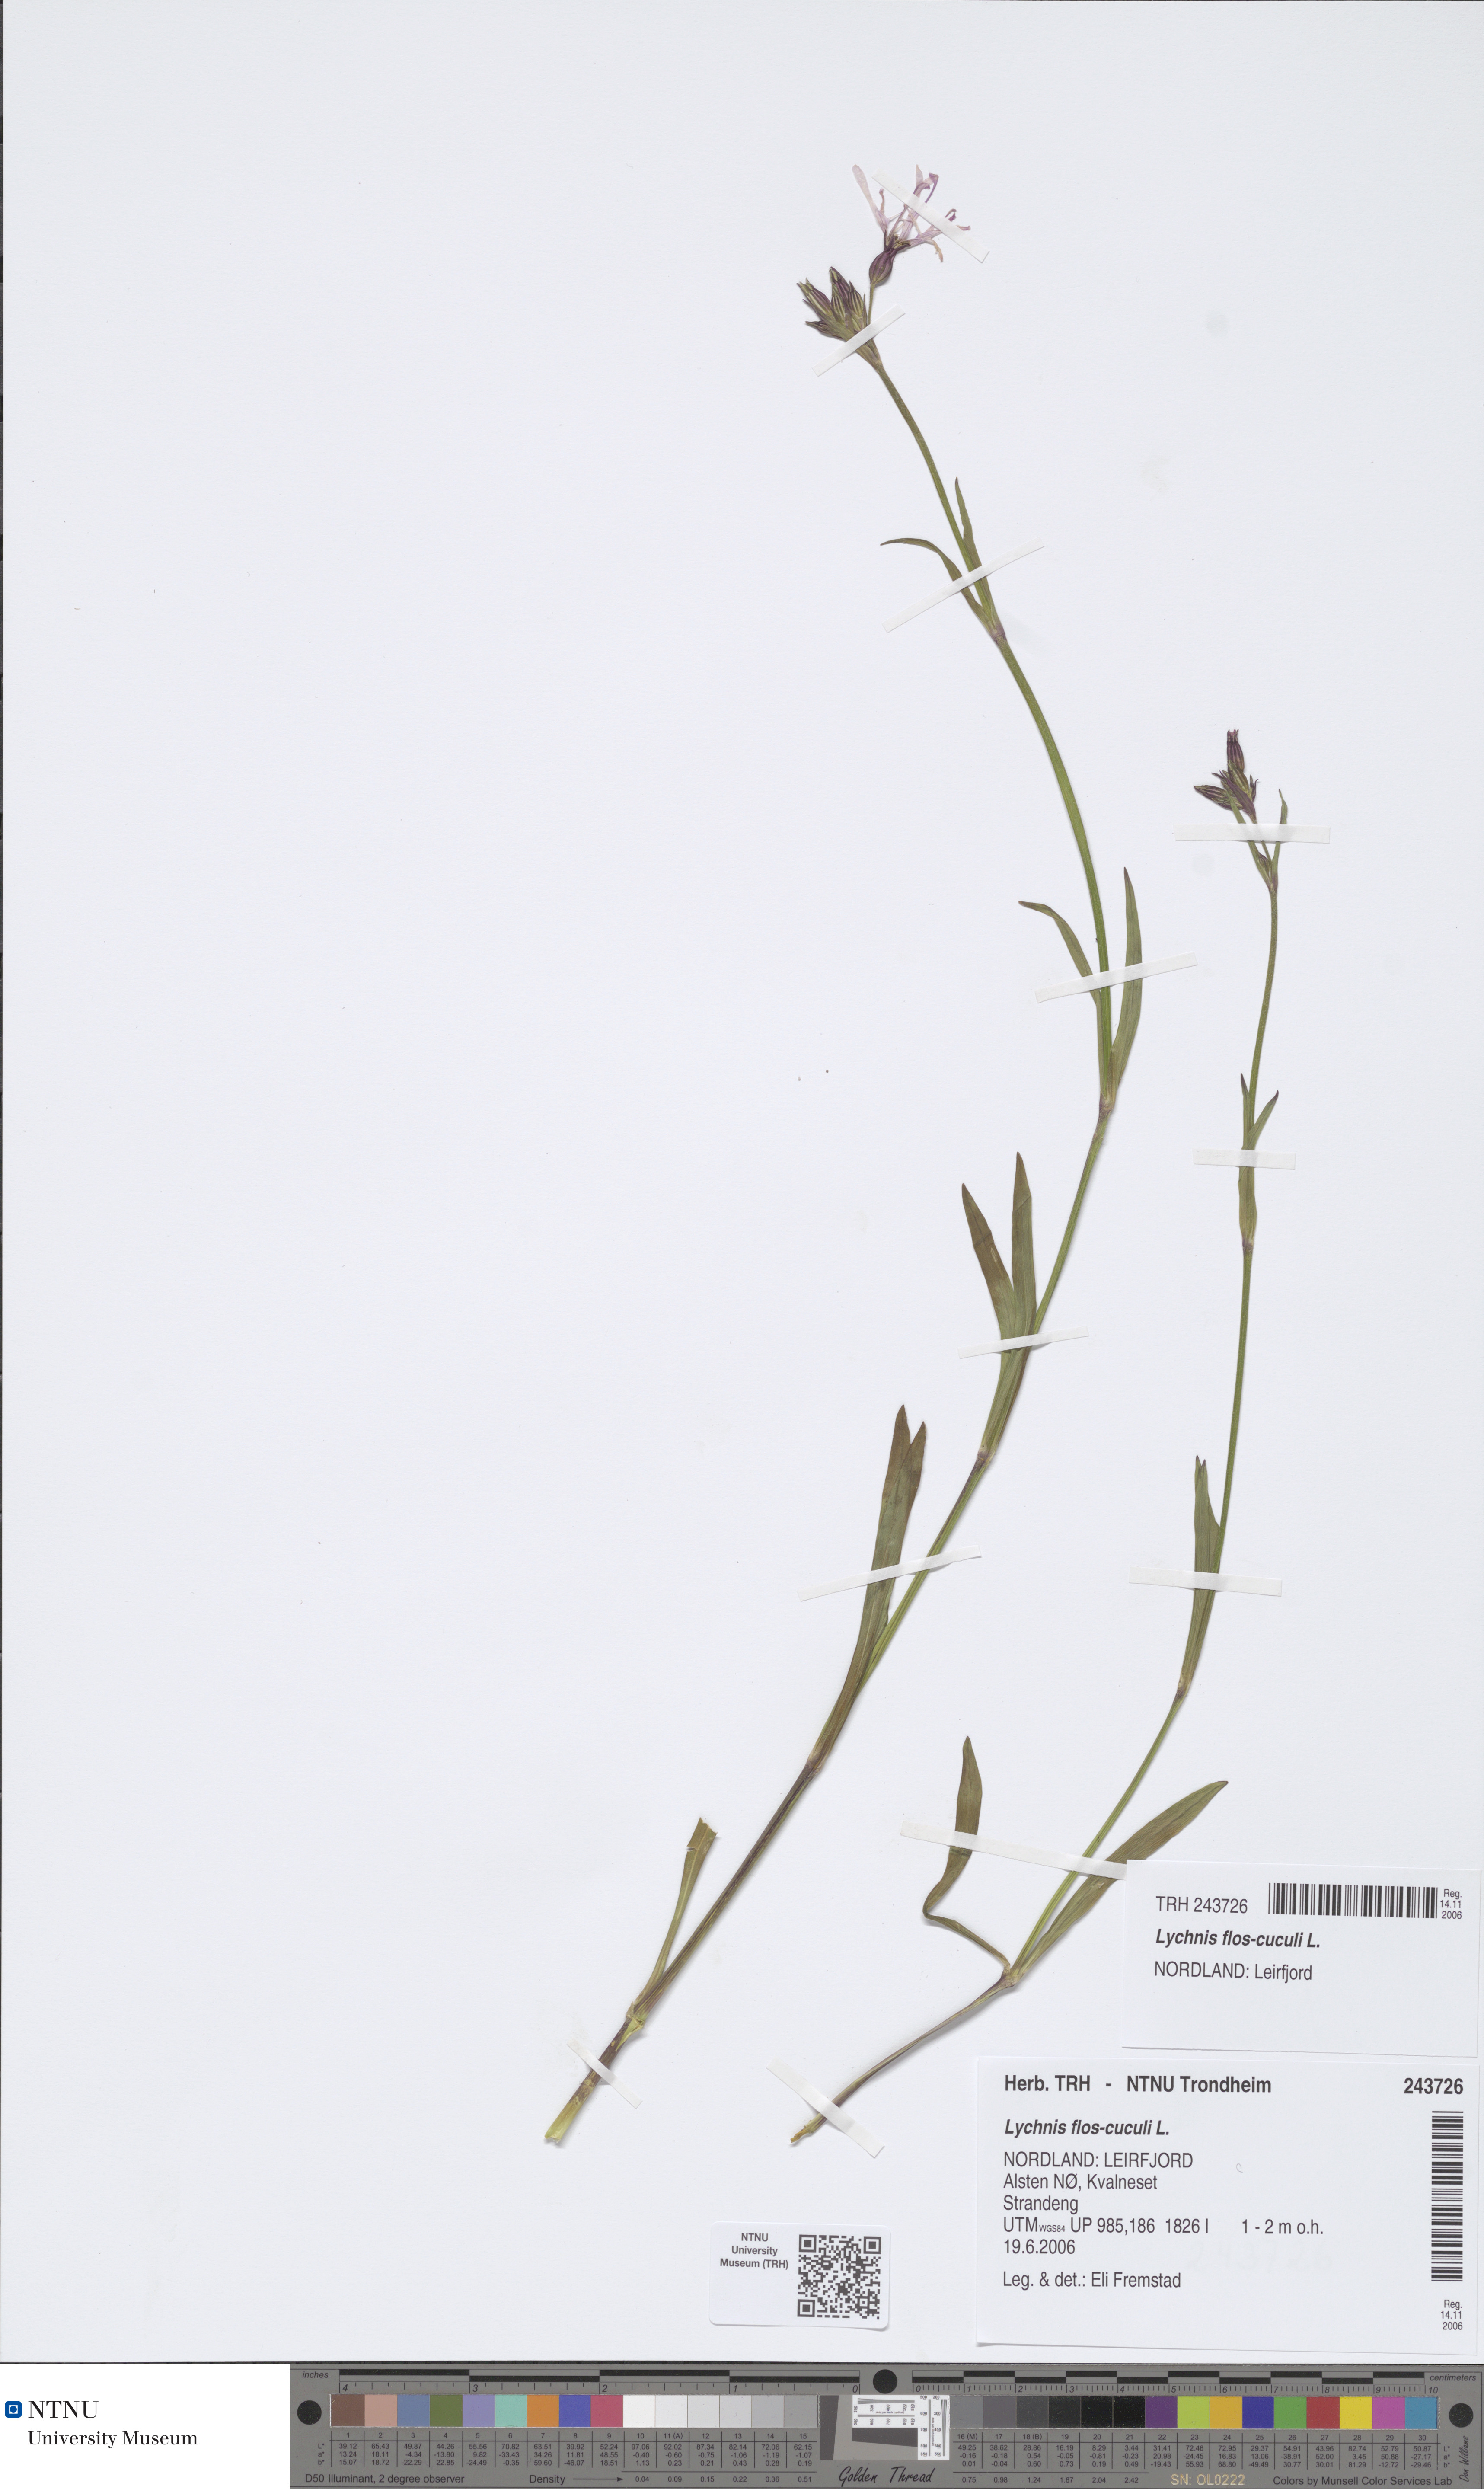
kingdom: Plantae
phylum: Tracheophyta
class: Magnoliopsida
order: Caryophyllales
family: Caryophyllaceae
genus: Silene
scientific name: Silene flos-cuculi
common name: Ragged-robin
